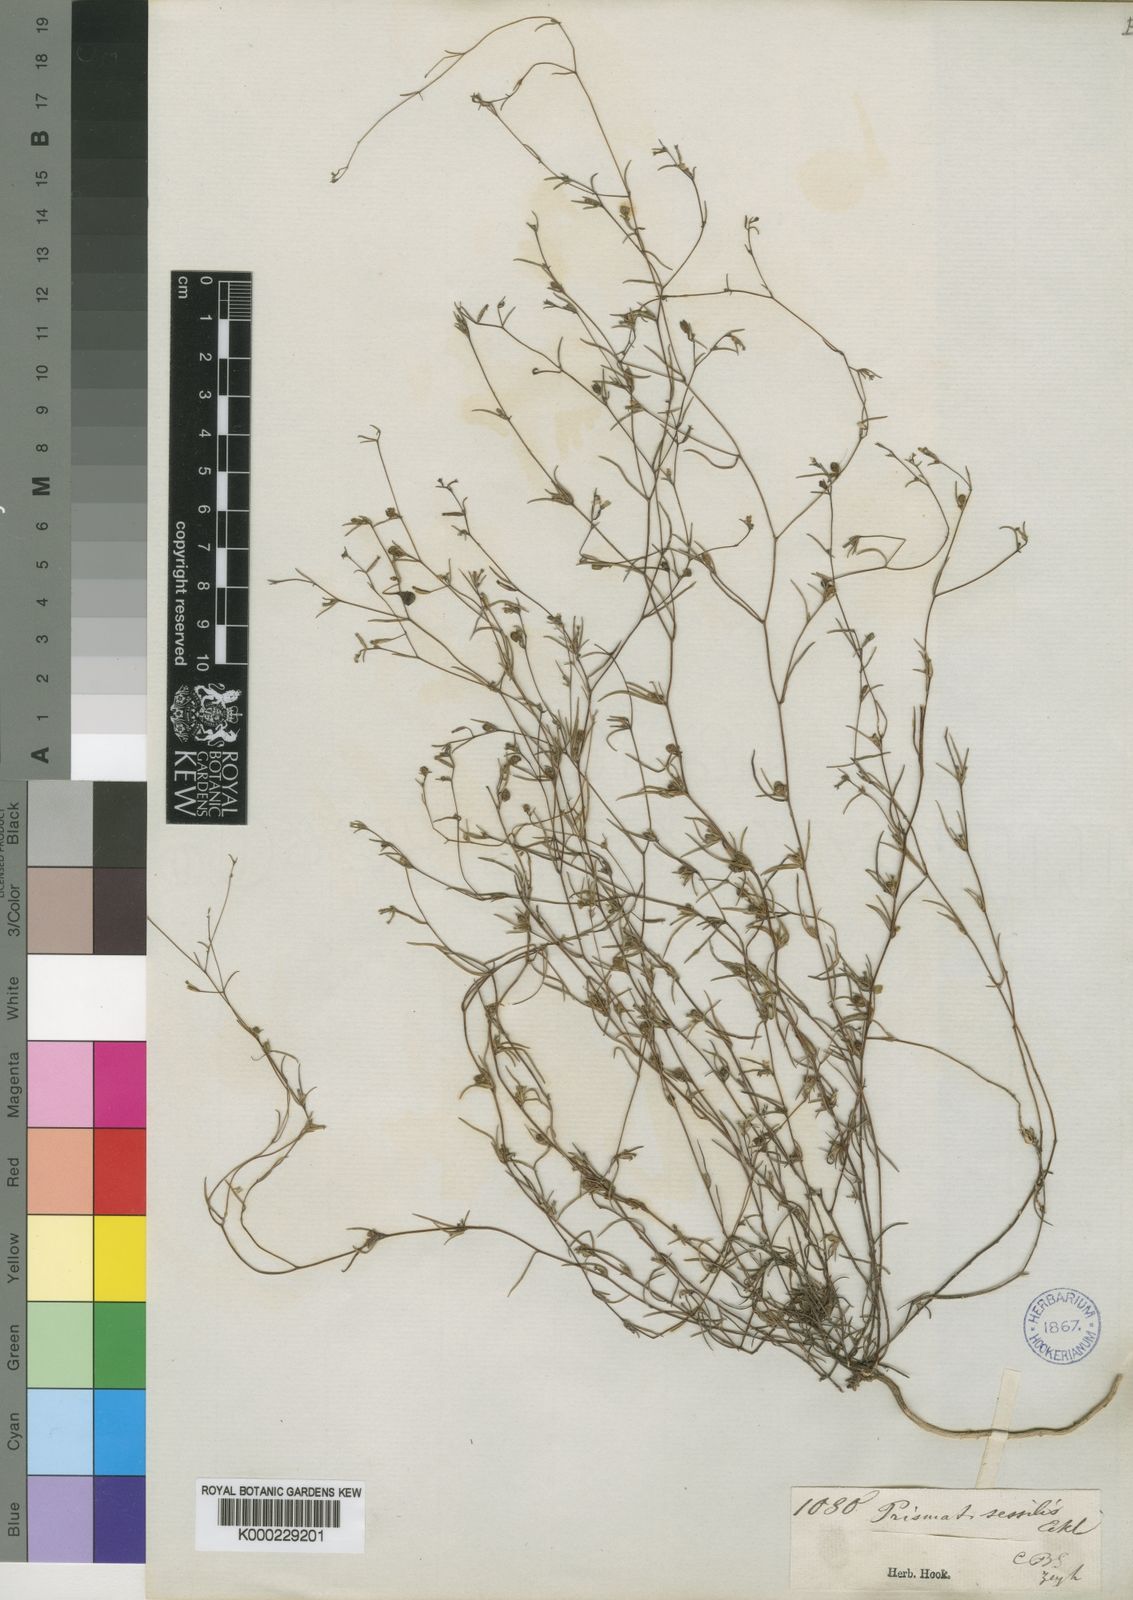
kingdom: Plantae
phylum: Tracheophyta
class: Magnoliopsida
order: Asterales
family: Campanulaceae
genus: Prismatocarpus
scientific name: Prismatocarpus sessilis
